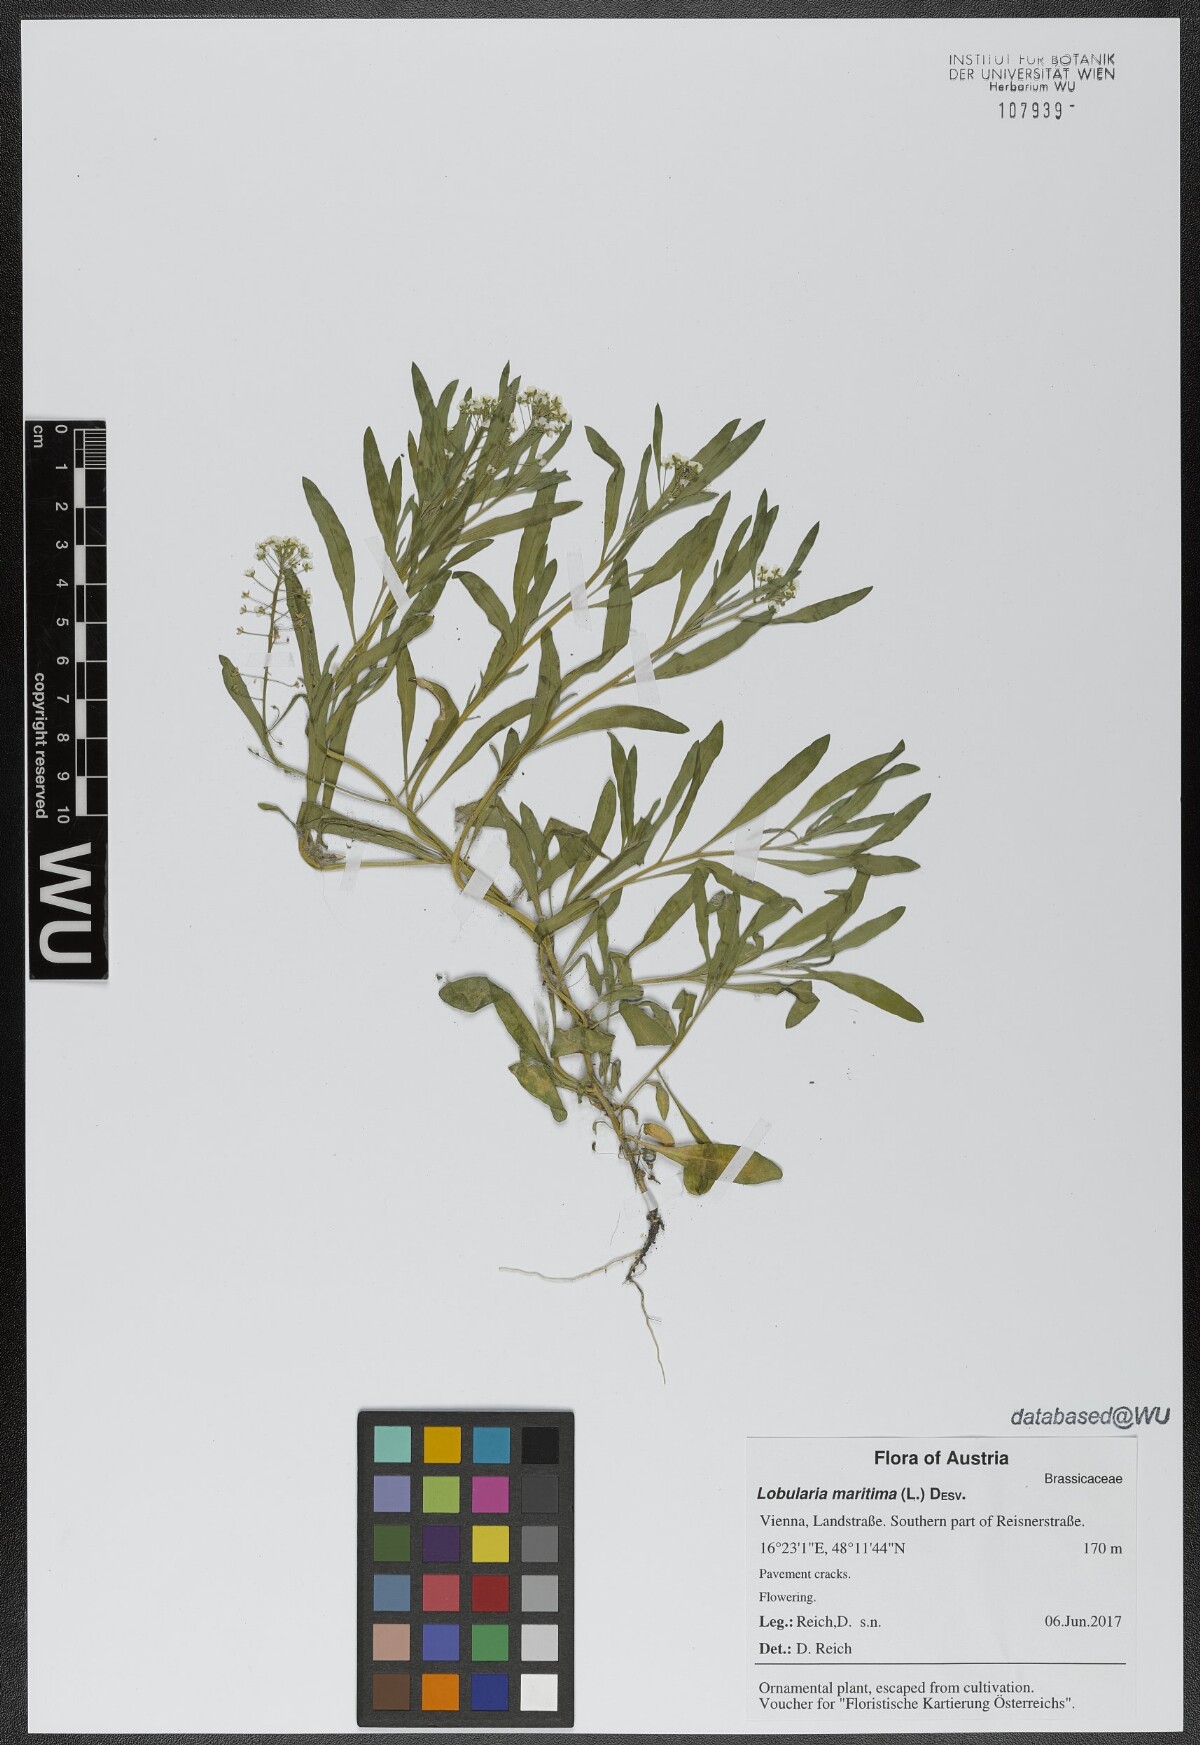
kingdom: Plantae
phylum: Tracheophyta
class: Magnoliopsida
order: Brassicales
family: Brassicaceae
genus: Lobularia
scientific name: Lobularia maritima
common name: Sweet alison
